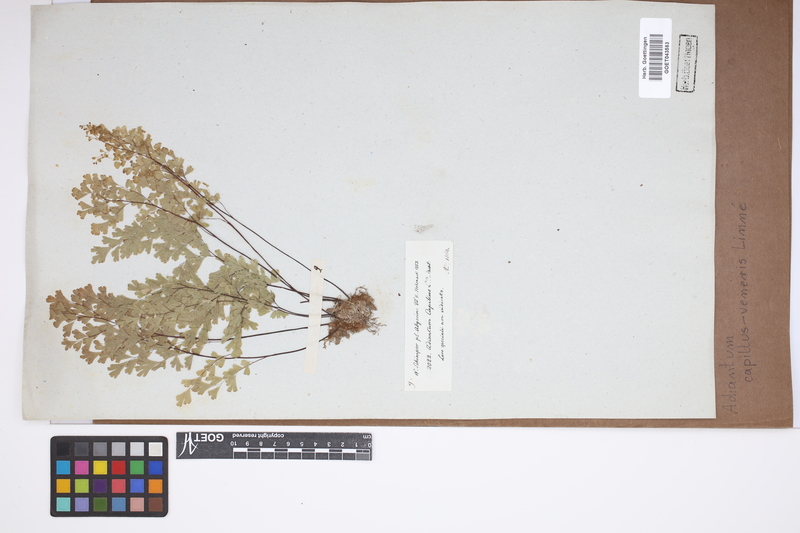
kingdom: Plantae
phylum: Tracheophyta
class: Polypodiopsida
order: Polypodiales
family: Pteridaceae
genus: Adiantum
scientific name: Adiantum capillus-veneris
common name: Maidenhair fern
